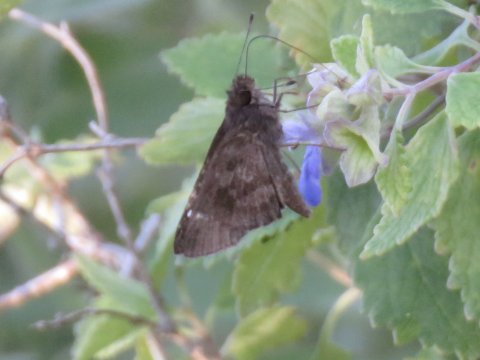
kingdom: Animalia
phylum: Arthropoda
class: Insecta
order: Lepidoptera
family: Hesperiidae
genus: Cymaenes
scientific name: Cymaenes odilia
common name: Fawn-spotted Skipper
